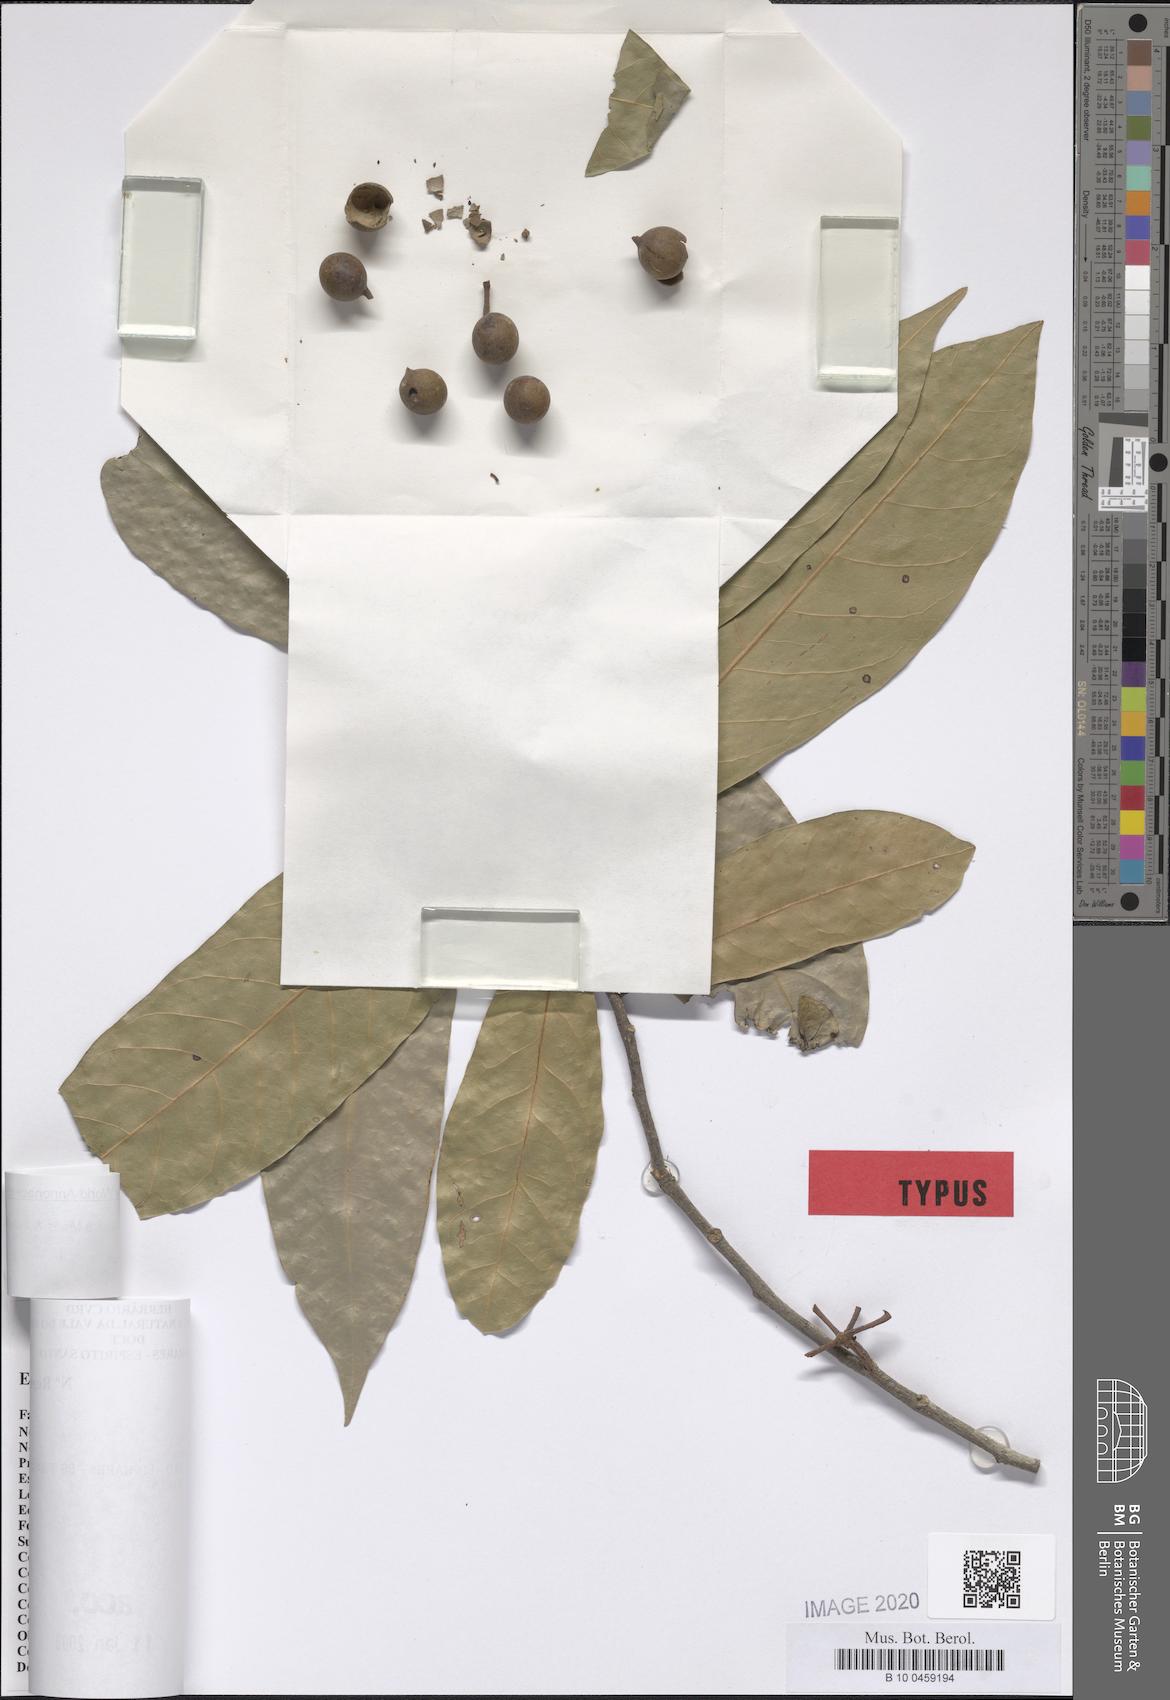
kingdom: Plantae
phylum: Tracheophyta
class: Magnoliopsida
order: Magnoliales
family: Annonaceae
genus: Unonopsis
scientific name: Unonopsis aurantiaca
